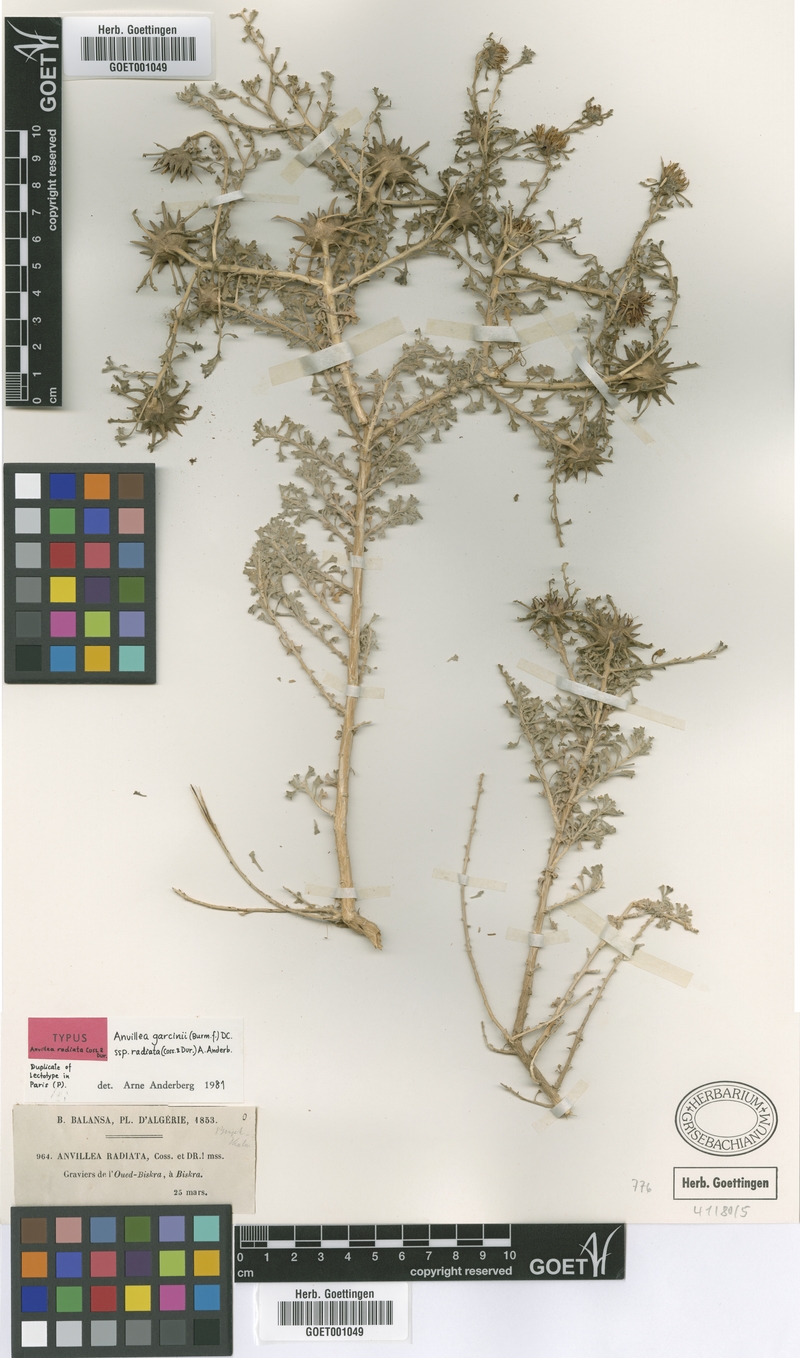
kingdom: Plantae
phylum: Tracheophyta
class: Magnoliopsida
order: Asterales
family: Asteraceae
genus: Anvillea
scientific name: Anvillea garcinii
